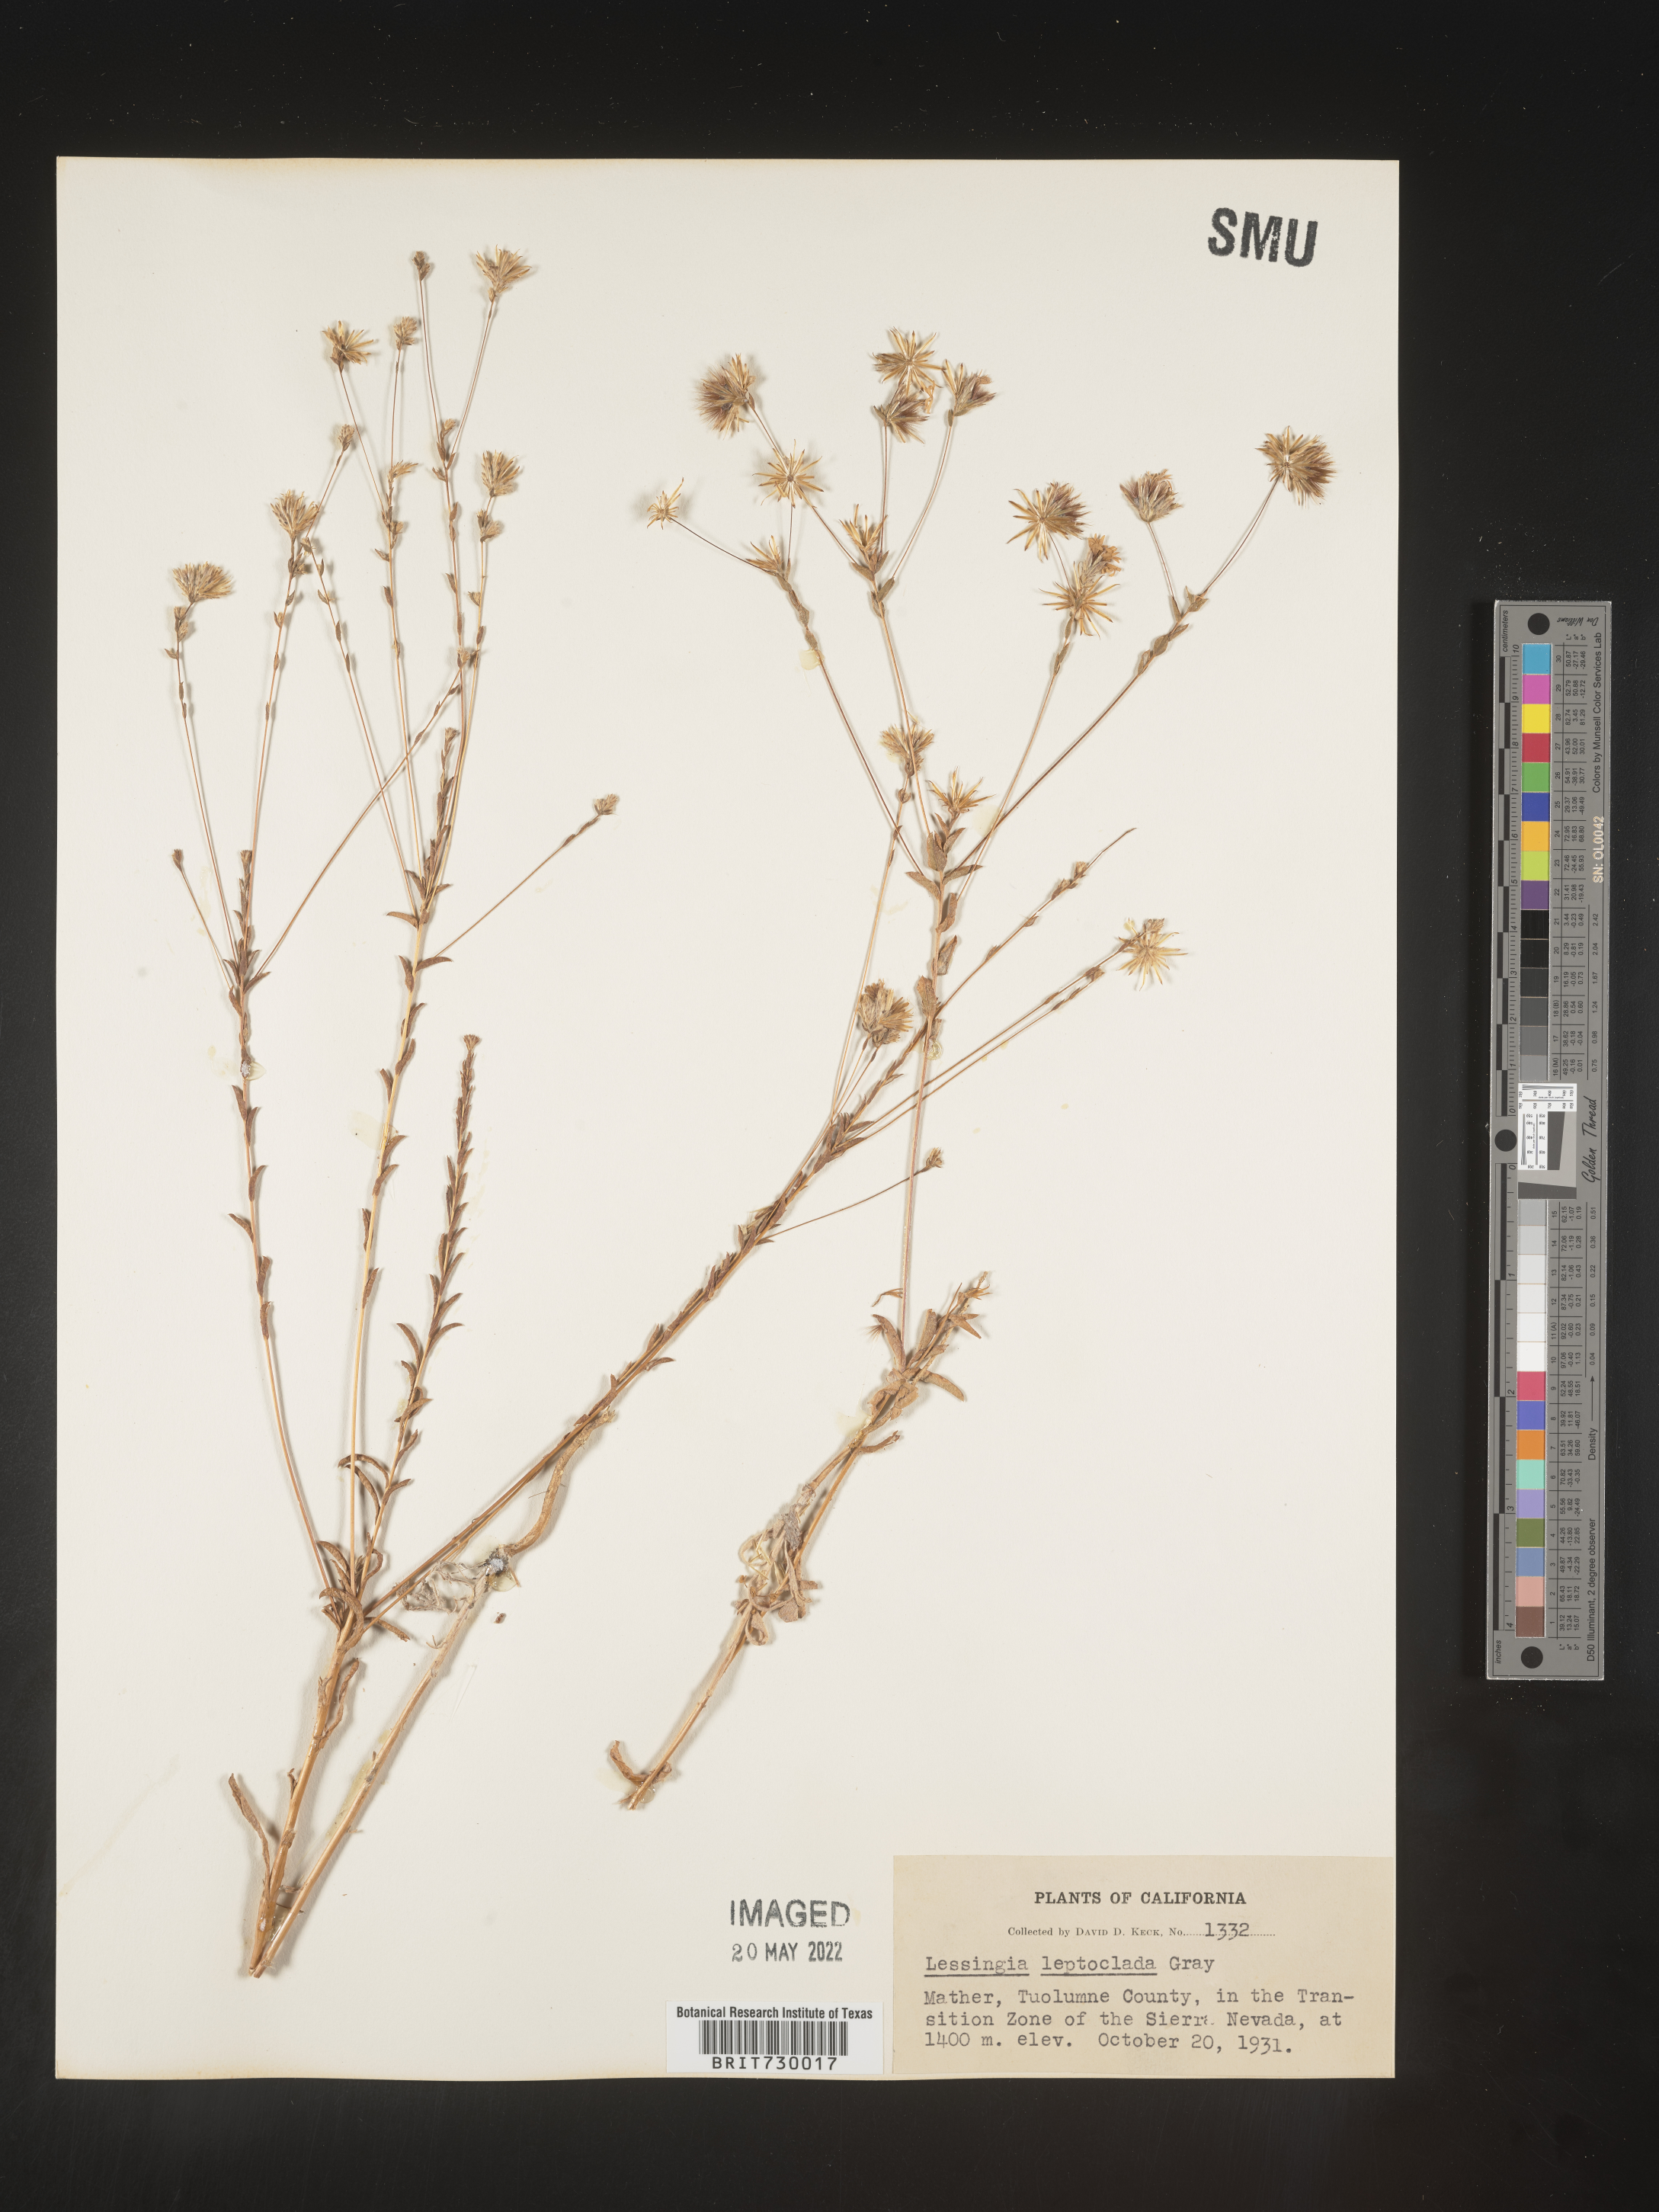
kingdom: Plantae
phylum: Tracheophyta
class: Magnoliopsida
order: Asterales
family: Asteraceae
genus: Lessingia
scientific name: Lessingia
